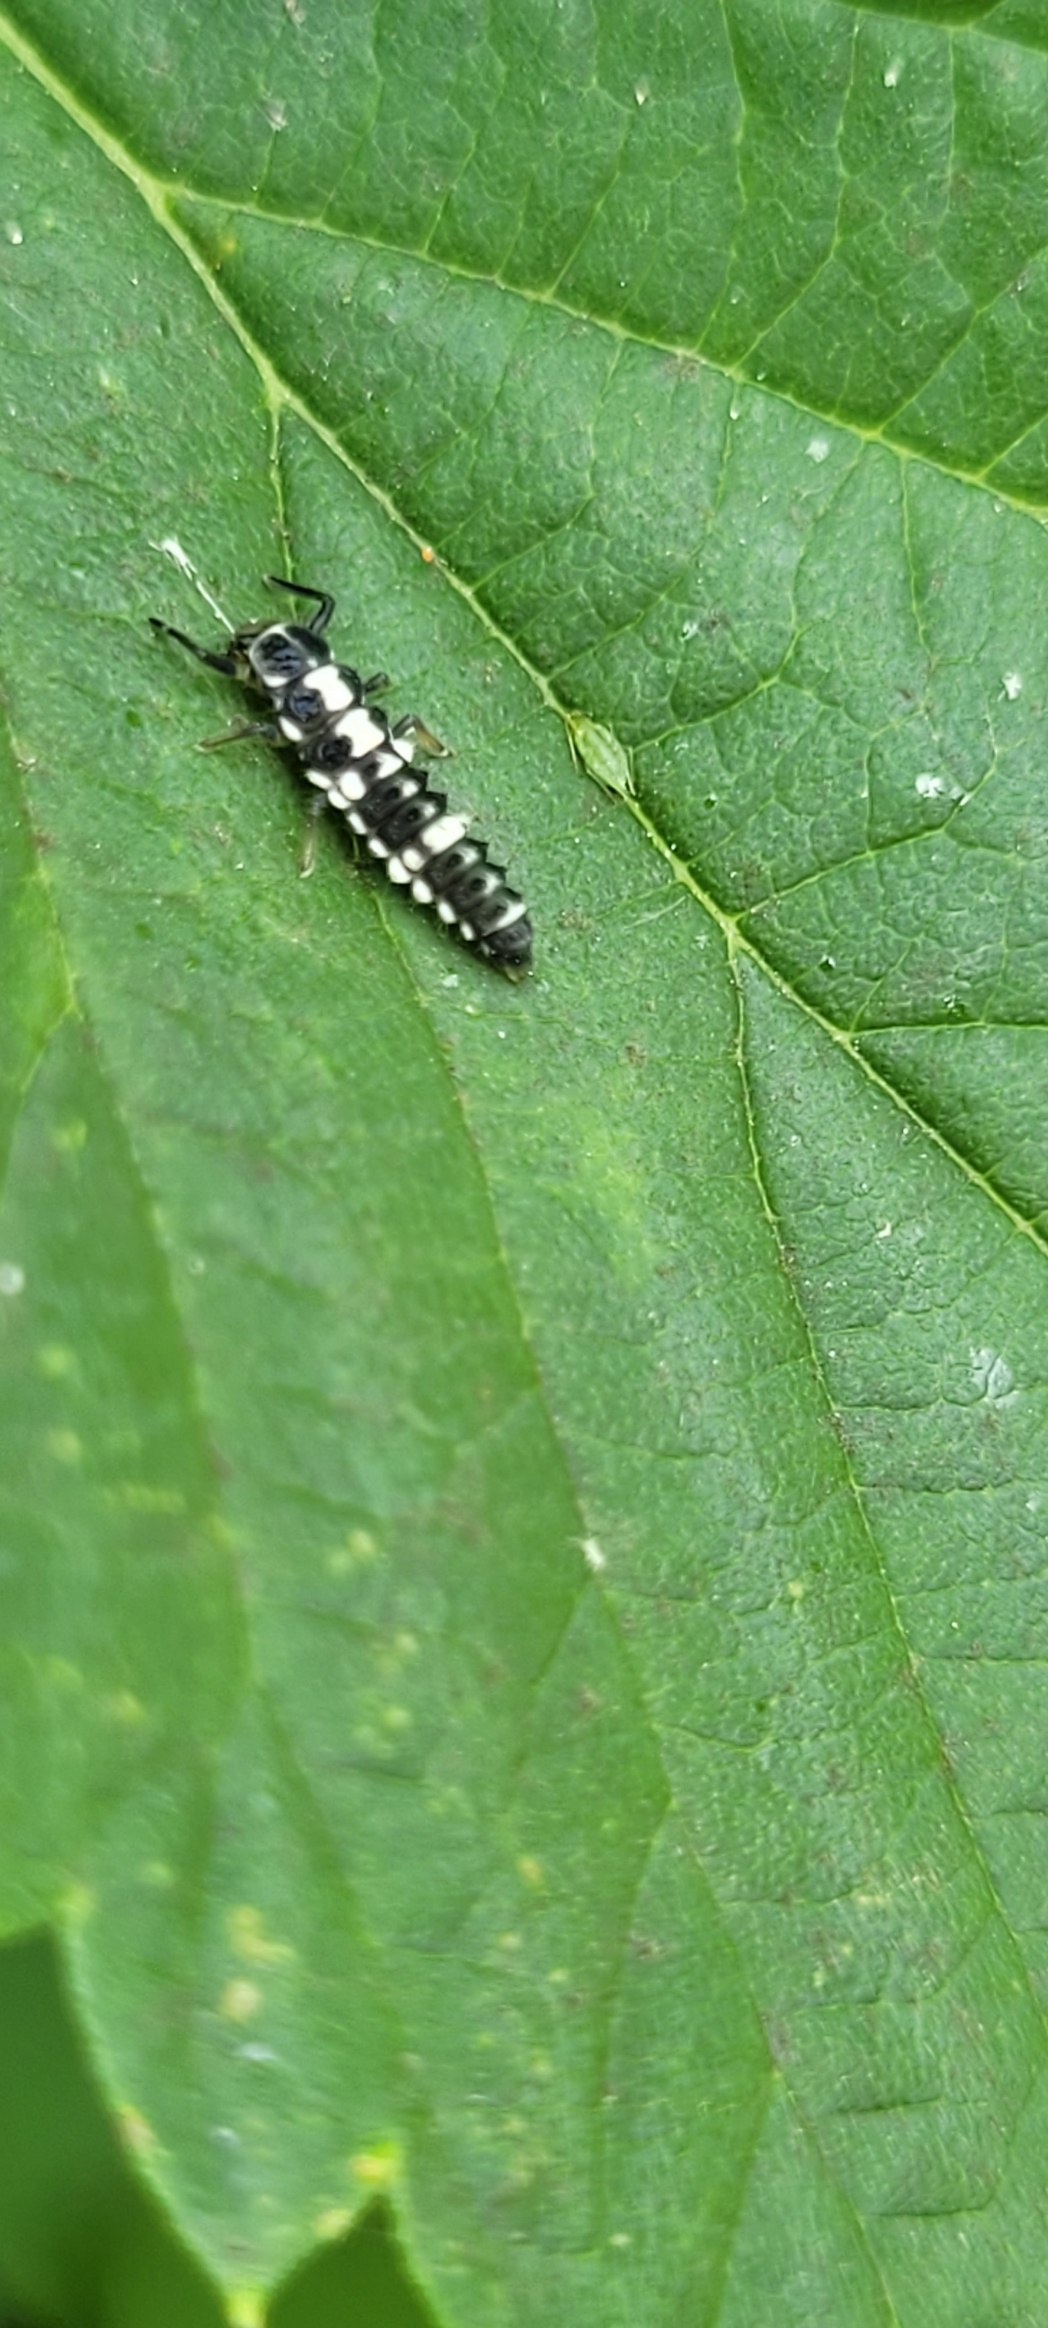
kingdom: Animalia
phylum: Arthropoda
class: Insecta
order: Coleoptera
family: Coccinellidae
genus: Propylaea
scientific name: Propylaea quatuordecimpunctata
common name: Skakbræt
